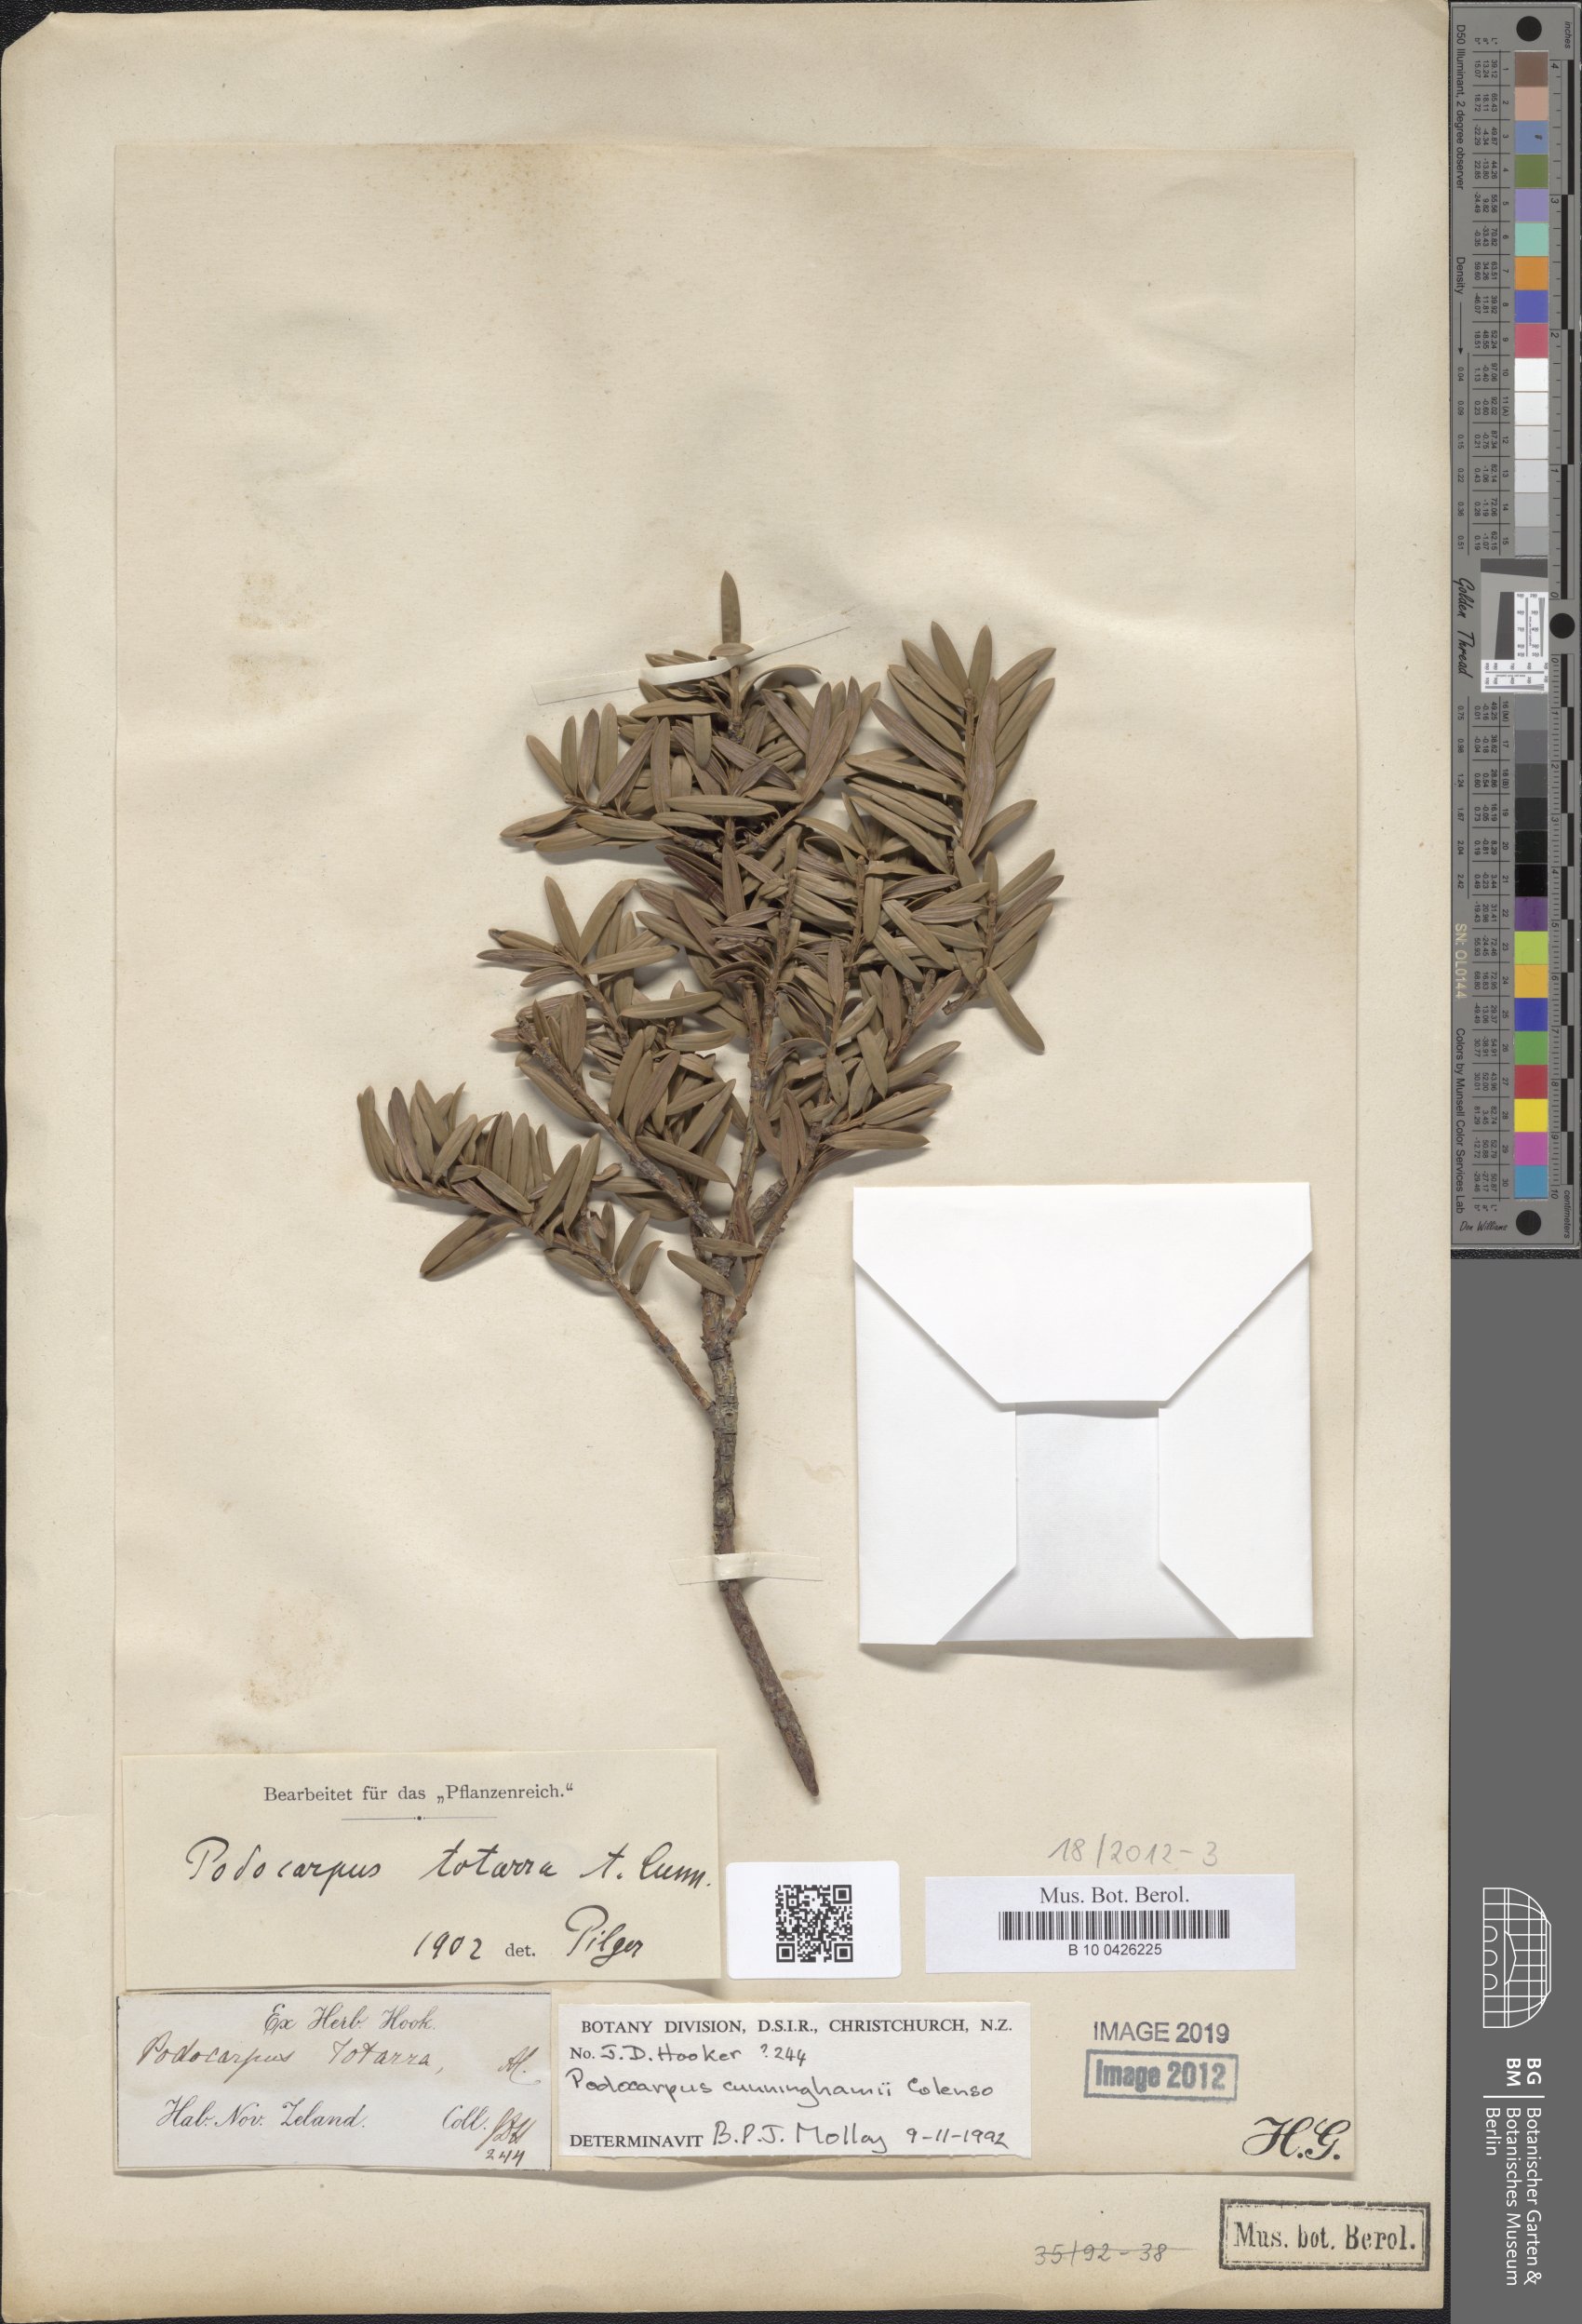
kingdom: Plantae
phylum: Tracheophyta
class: Pinopsida
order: Pinales
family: Podocarpaceae
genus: Podocarpus
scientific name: Podocarpus cunninghamii
